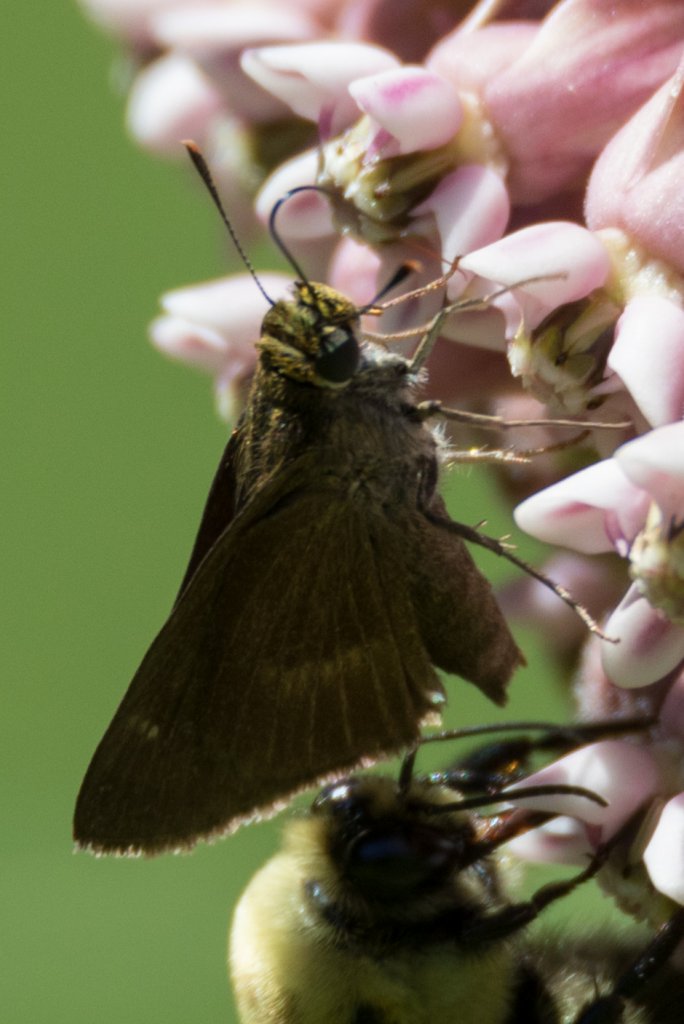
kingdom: Animalia
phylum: Arthropoda
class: Insecta
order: Lepidoptera
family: Hesperiidae
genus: Euphyes
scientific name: Euphyes vestris
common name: Dun Skipper
